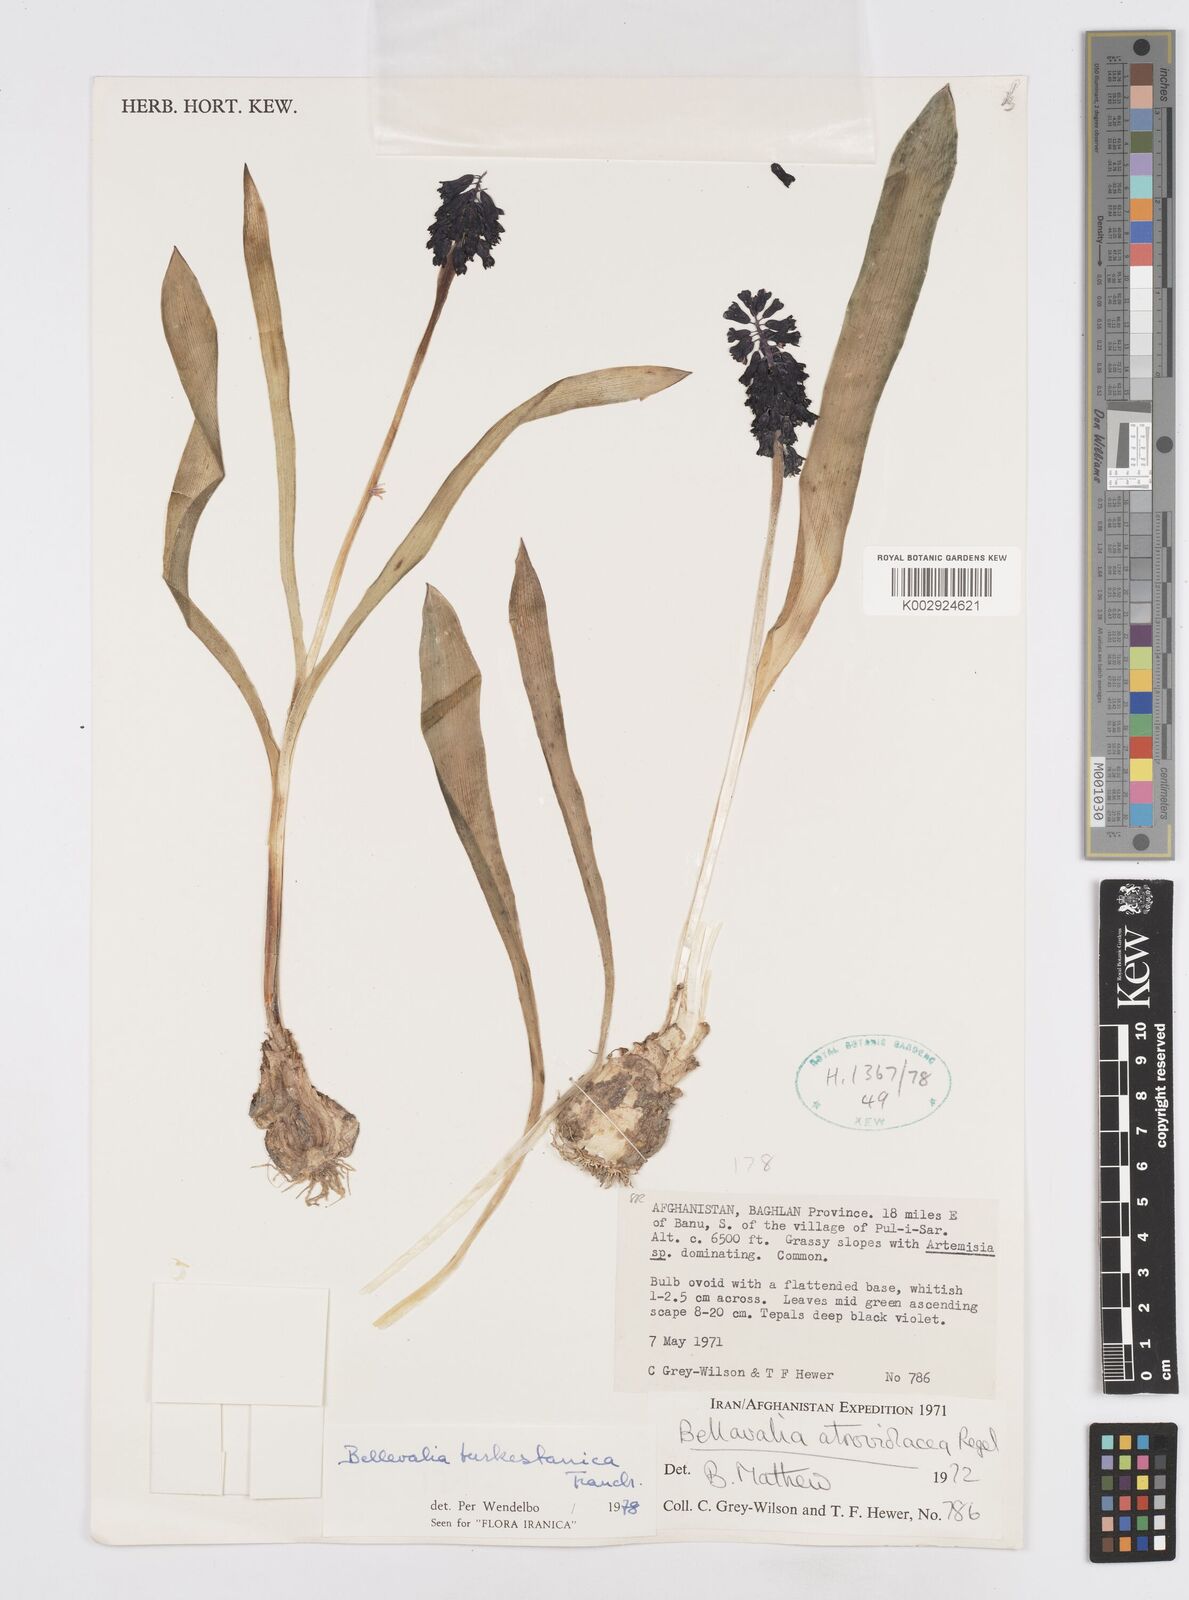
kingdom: Plantae
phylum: Tracheophyta
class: Liliopsida
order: Asparagales
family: Asparagaceae
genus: Bellevalia
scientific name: Bellevalia turkestanica
